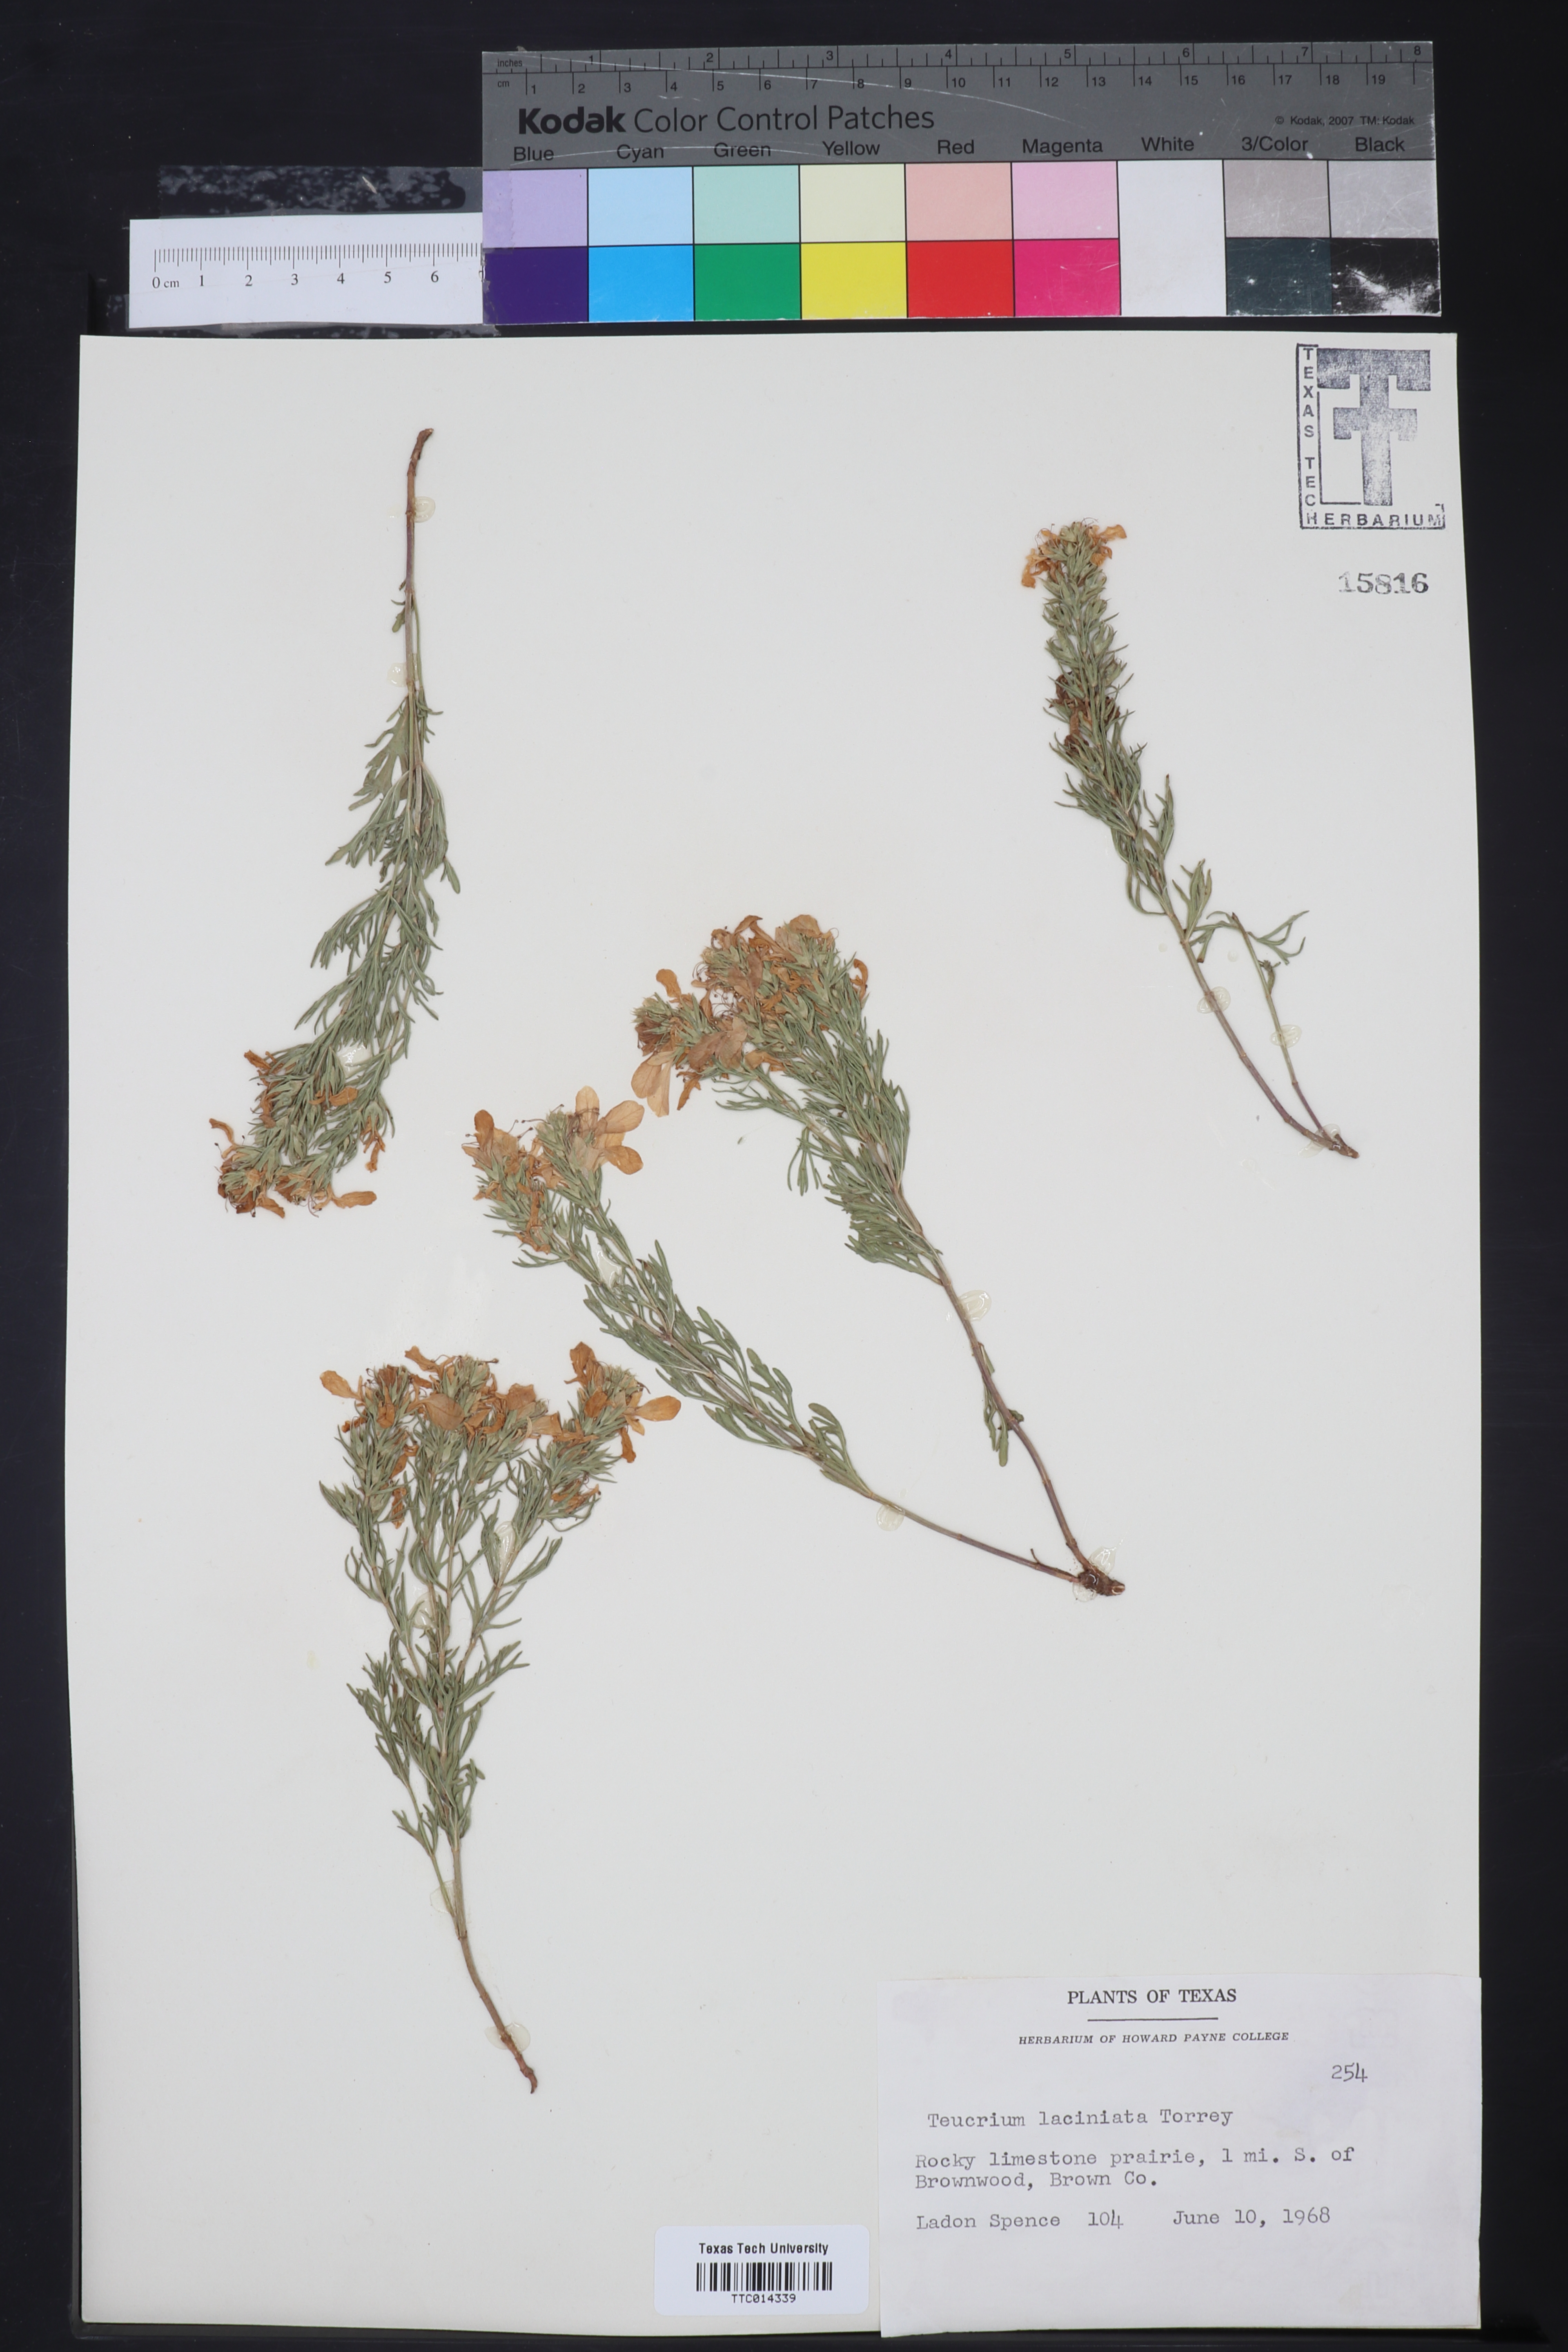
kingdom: Plantae
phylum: Tracheophyta
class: Magnoliopsida
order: Lamiales
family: Lamiaceae
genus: Teucrium
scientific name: Teucrium laciniatum
